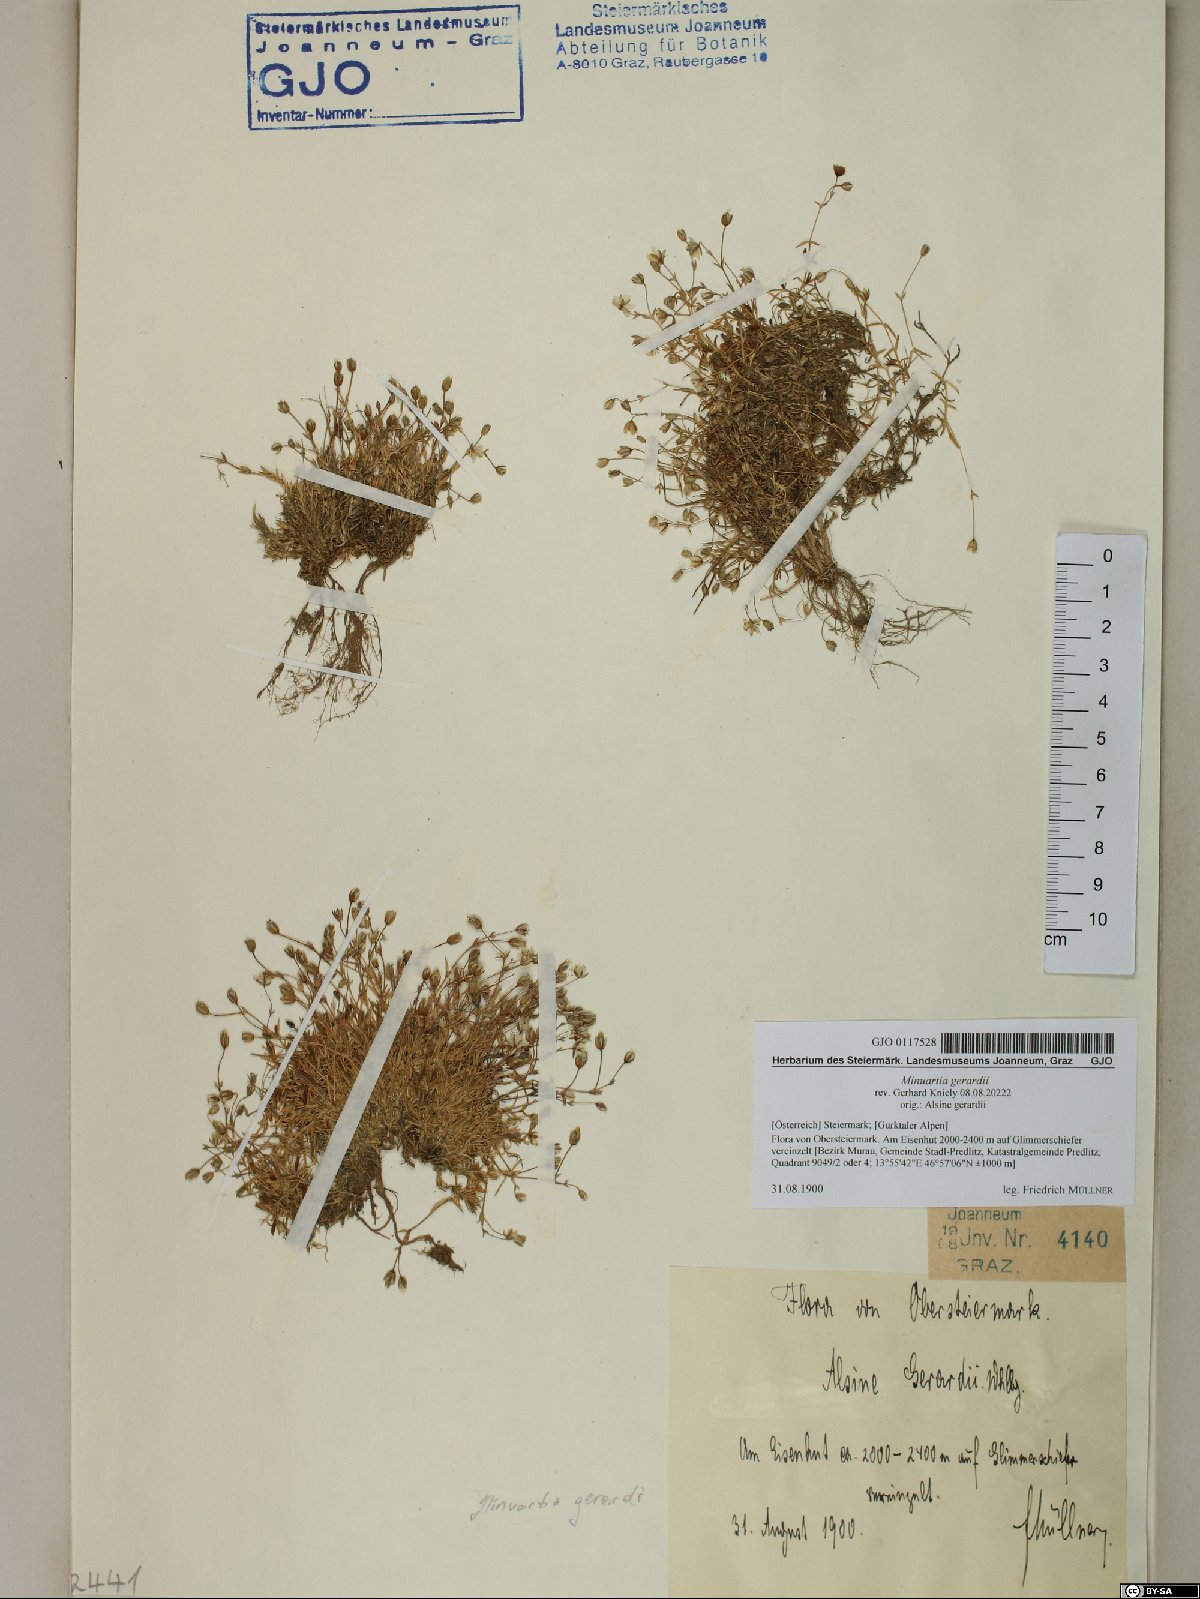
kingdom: Plantae
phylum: Tracheophyta
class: Magnoliopsida
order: Caryophyllales
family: Caryophyllaceae
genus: Sabulina
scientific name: Sabulina verna
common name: Spring sandwort
